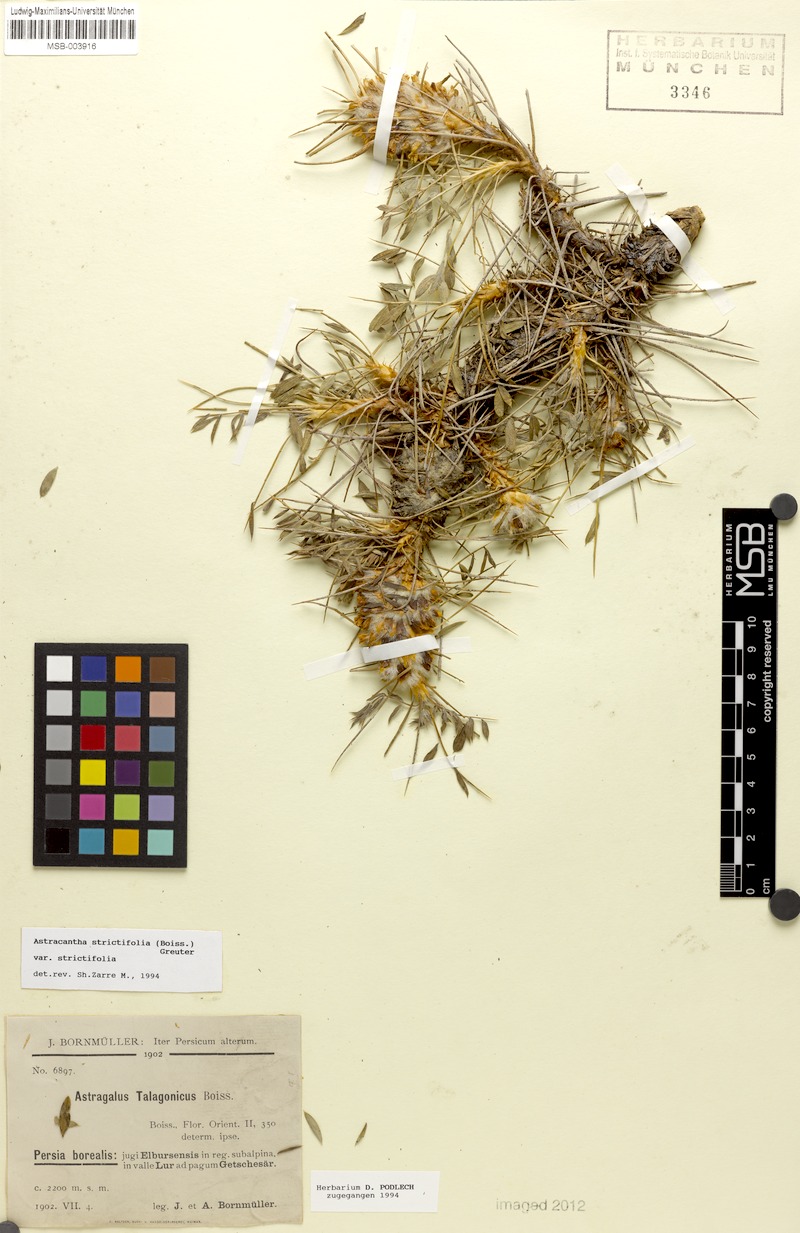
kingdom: Plantae
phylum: Tracheophyta
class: Magnoliopsida
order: Fabales
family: Fabaceae
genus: Astragalus
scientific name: Astragalus compactus
